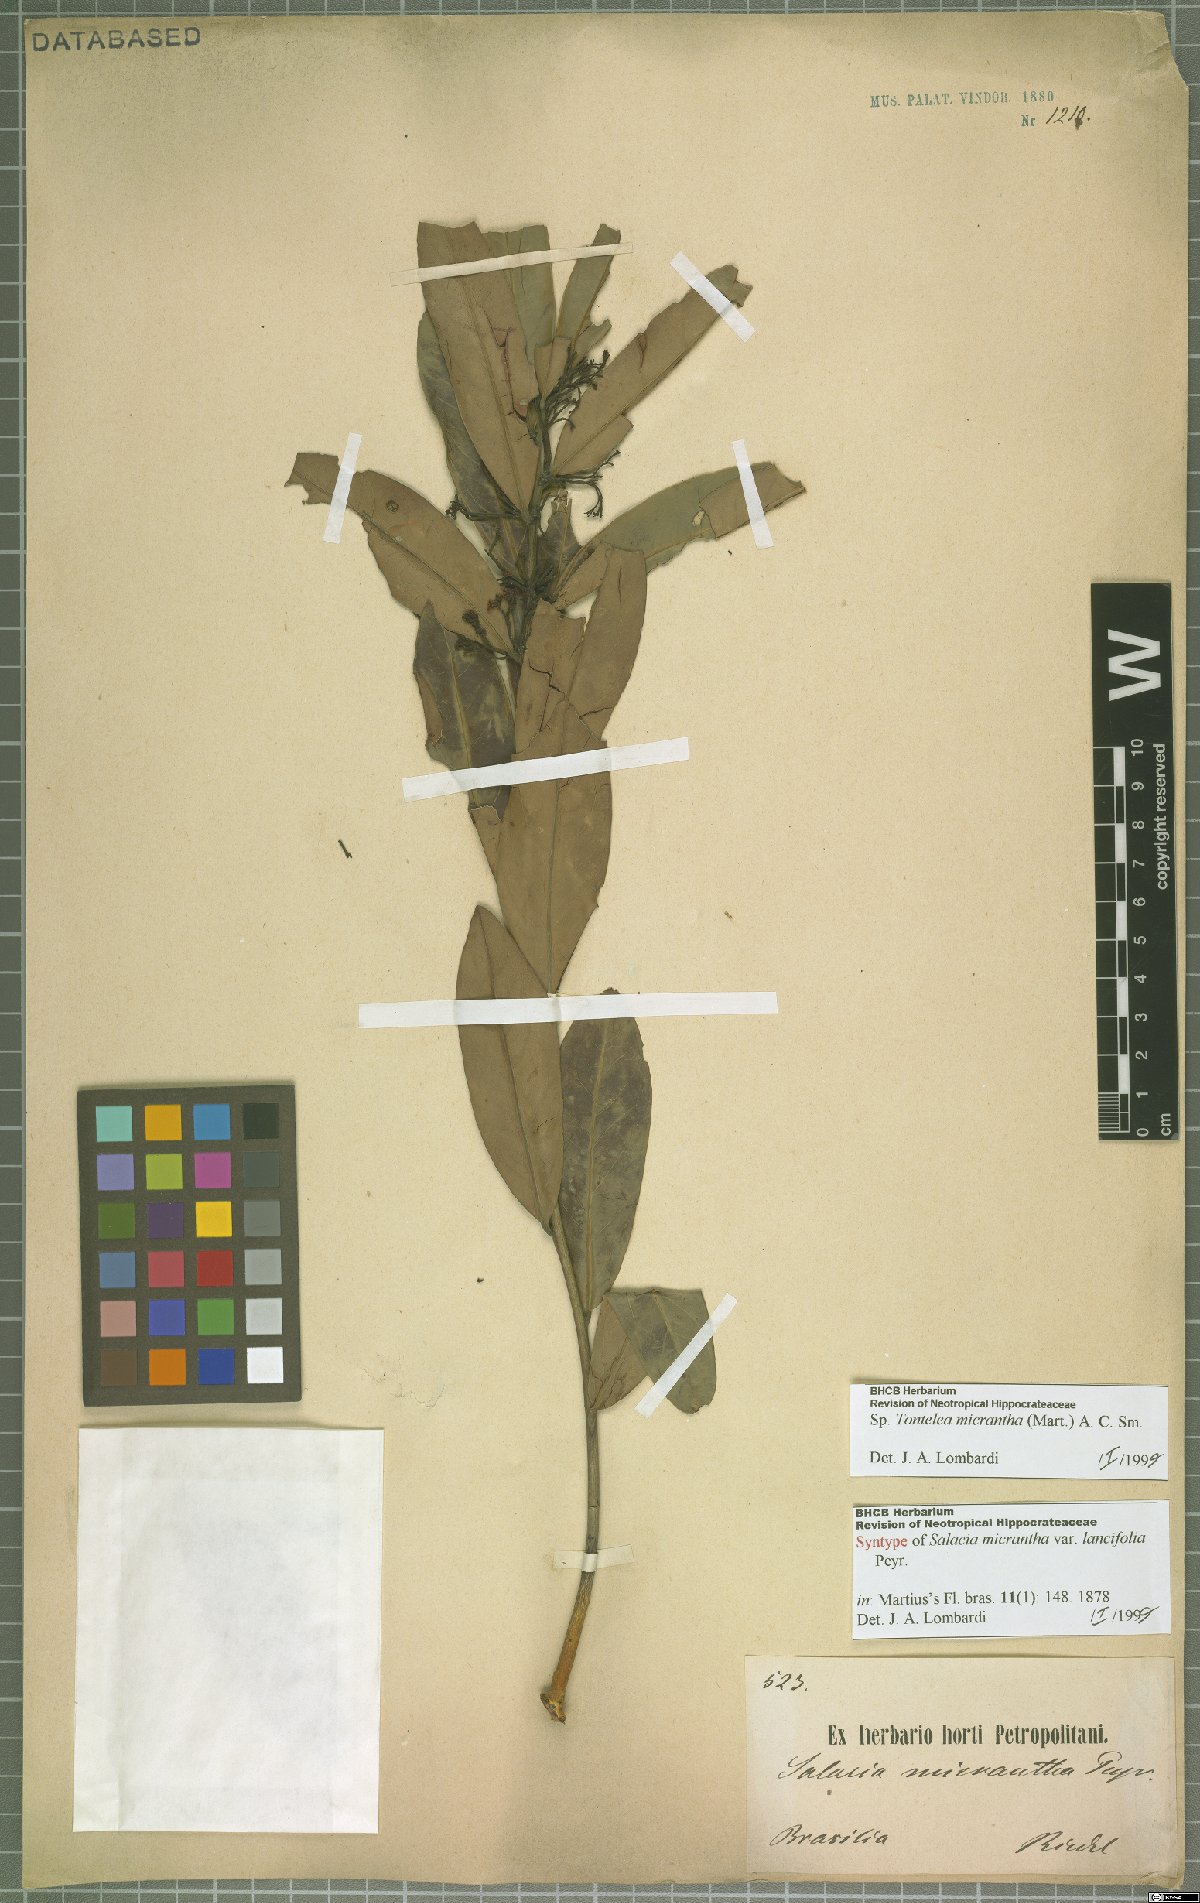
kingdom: Plantae
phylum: Tracheophyta
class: Magnoliopsida
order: Celastrales
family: Celastraceae
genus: Tontelea
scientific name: Tontelea micrantha
